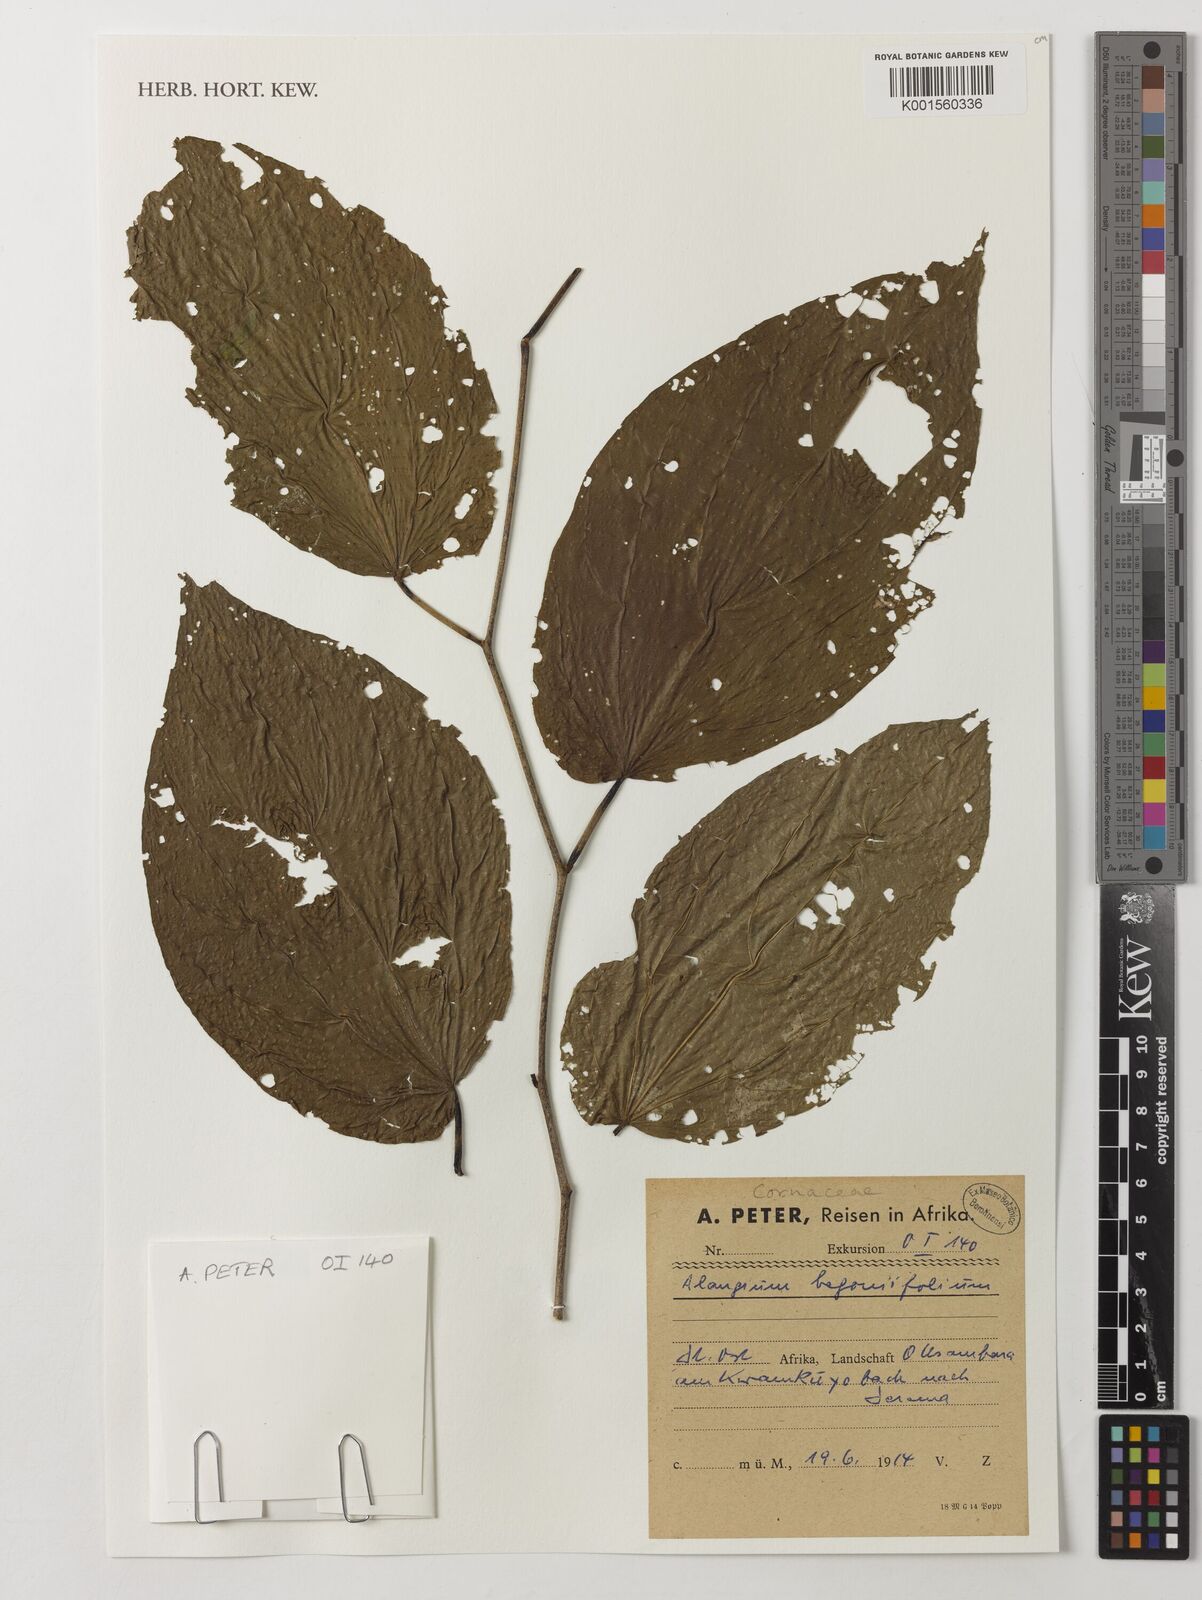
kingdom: Plantae
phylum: Tracheophyta
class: Magnoliopsida
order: Cornales
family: Cornaceae
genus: Alangium
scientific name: Alangium chinense
